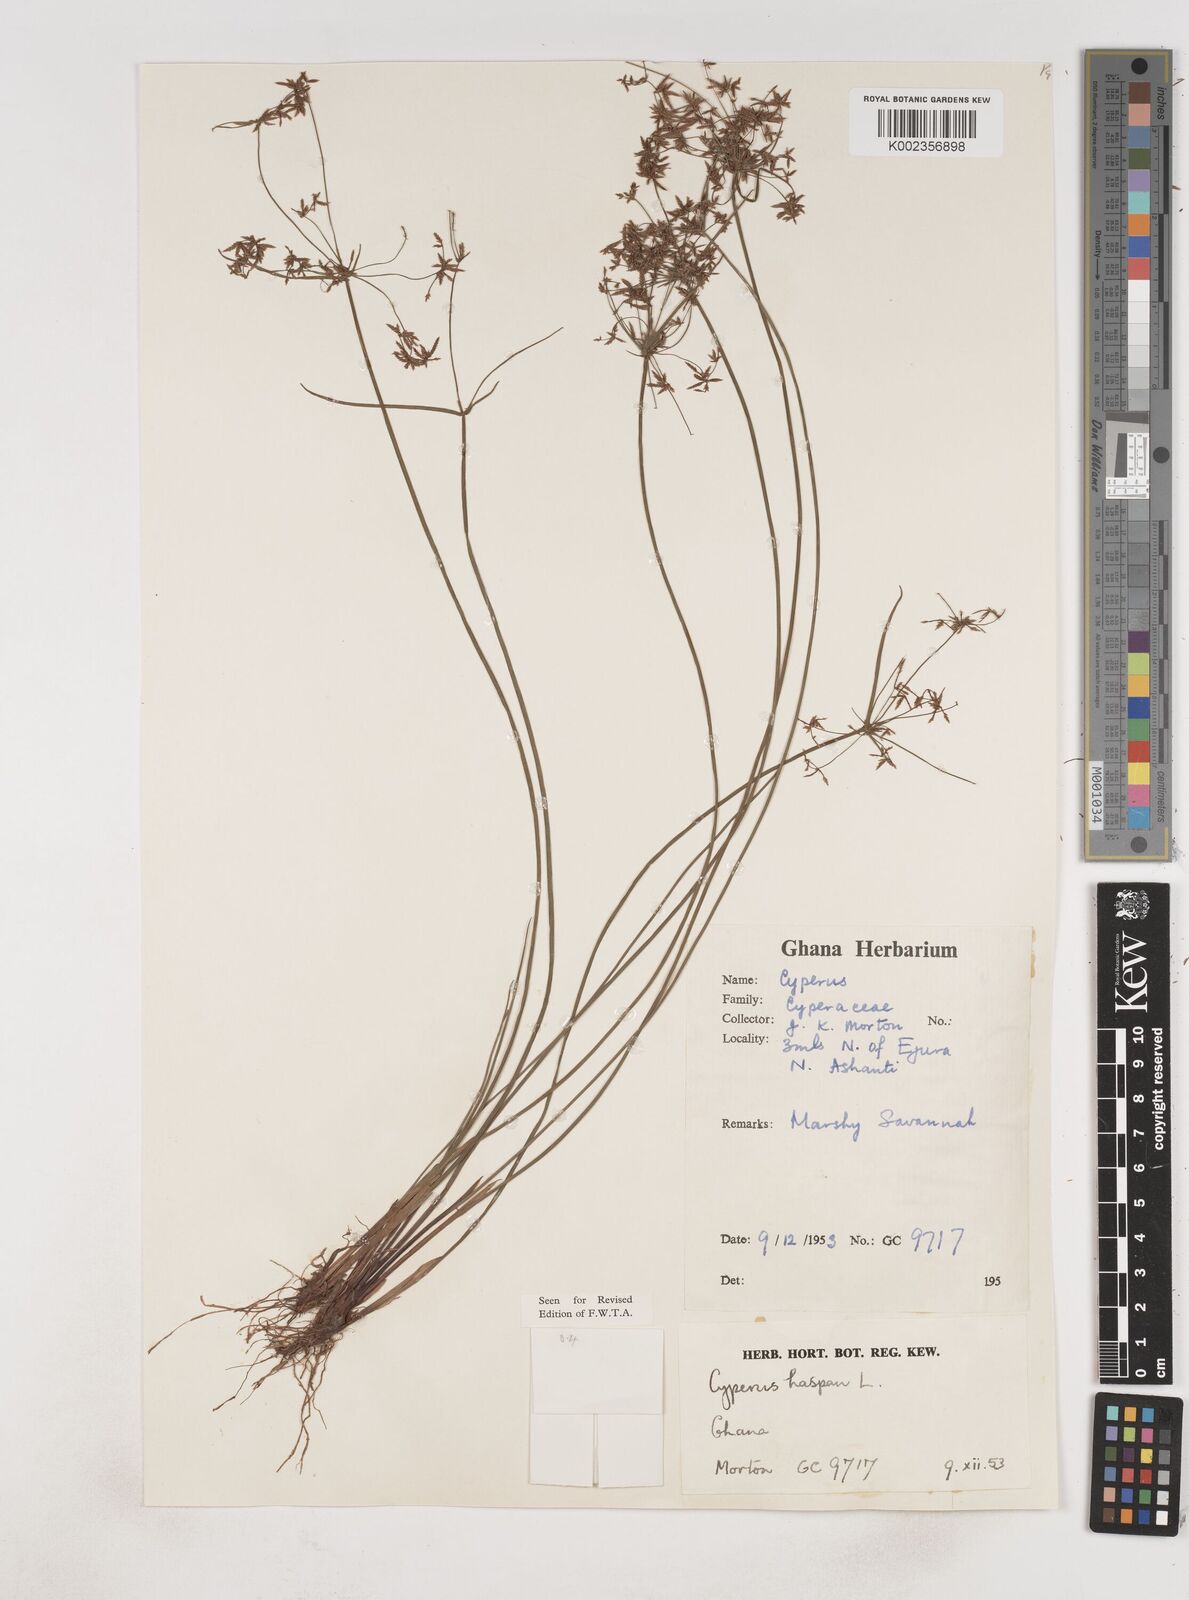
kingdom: Plantae
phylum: Tracheophyta
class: Liliopsida
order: Poales
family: Cyperaceae
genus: Cyperus
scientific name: Cyperus haspan
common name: Haspan flatsedge
